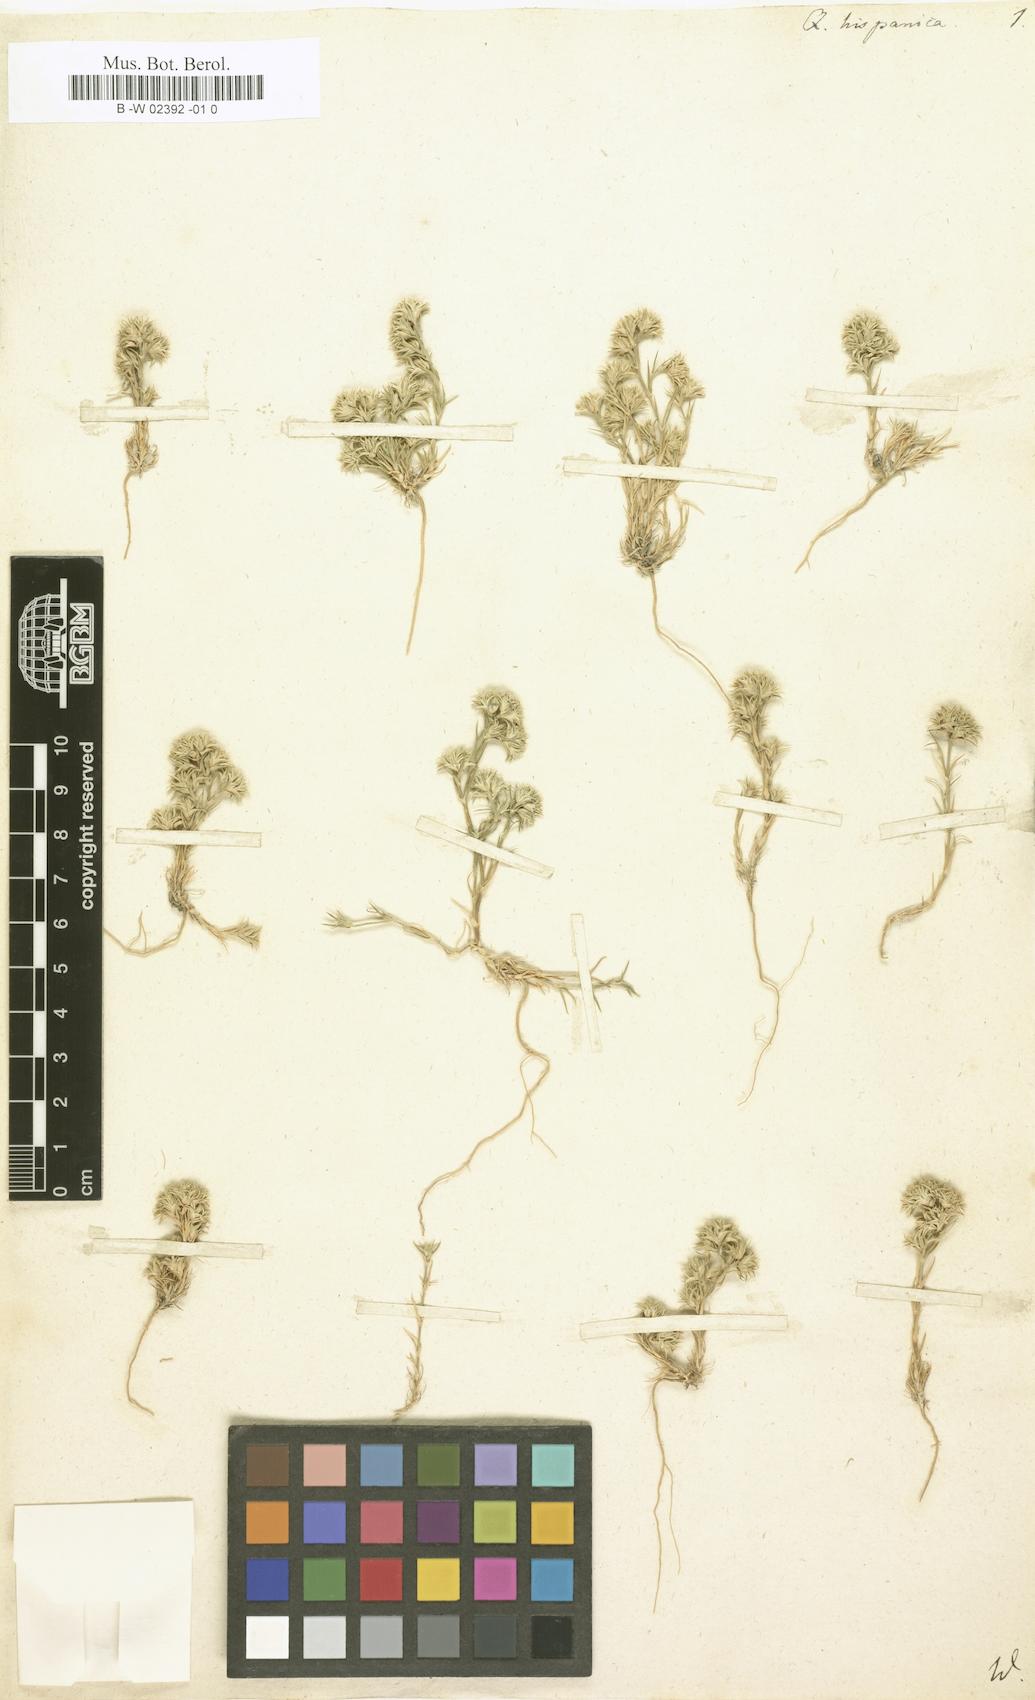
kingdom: Plantae
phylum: Tracheophyta
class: Magnoliopsida
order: Caryophyllales
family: Caryophyllaceae
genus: Minuartia
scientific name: Minuartia hamata
